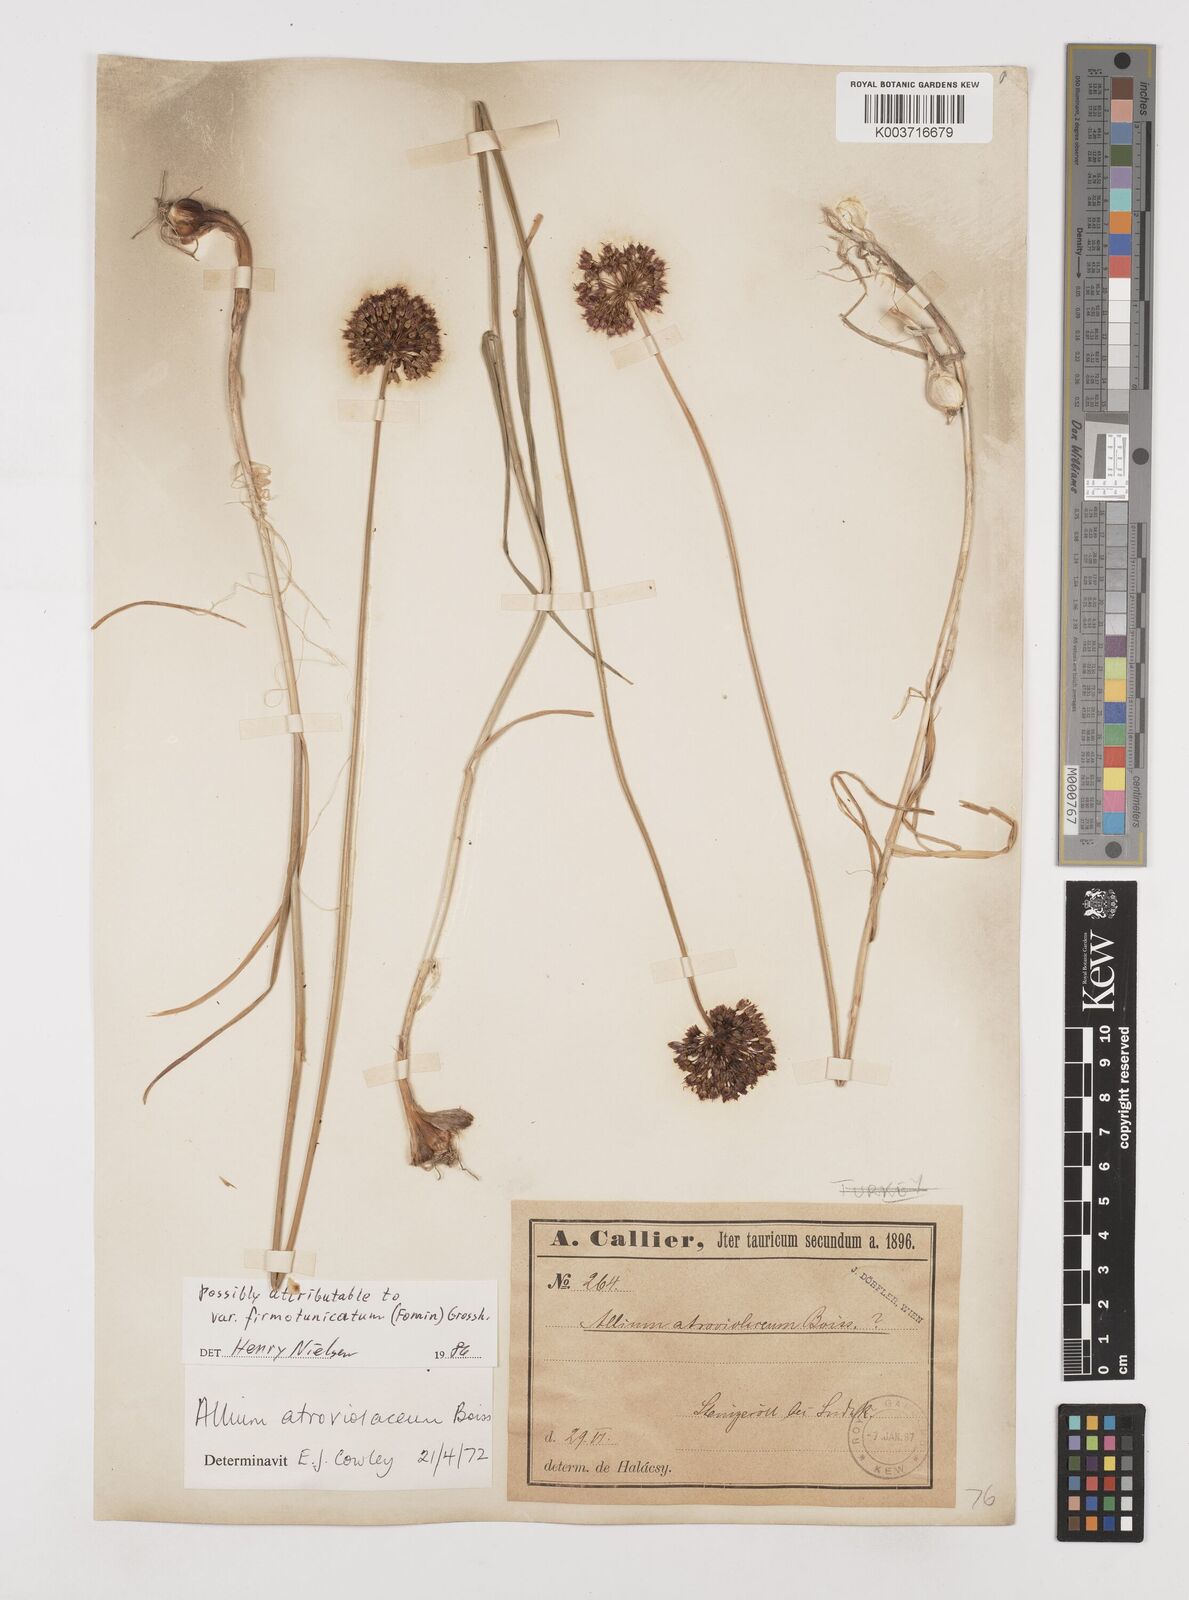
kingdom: Plantae
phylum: Tracheophyta
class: Liliopsida
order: Asparagales
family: Amaryllidaceae
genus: Allium
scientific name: Allium sphaerocephalon
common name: Round-headed leek
